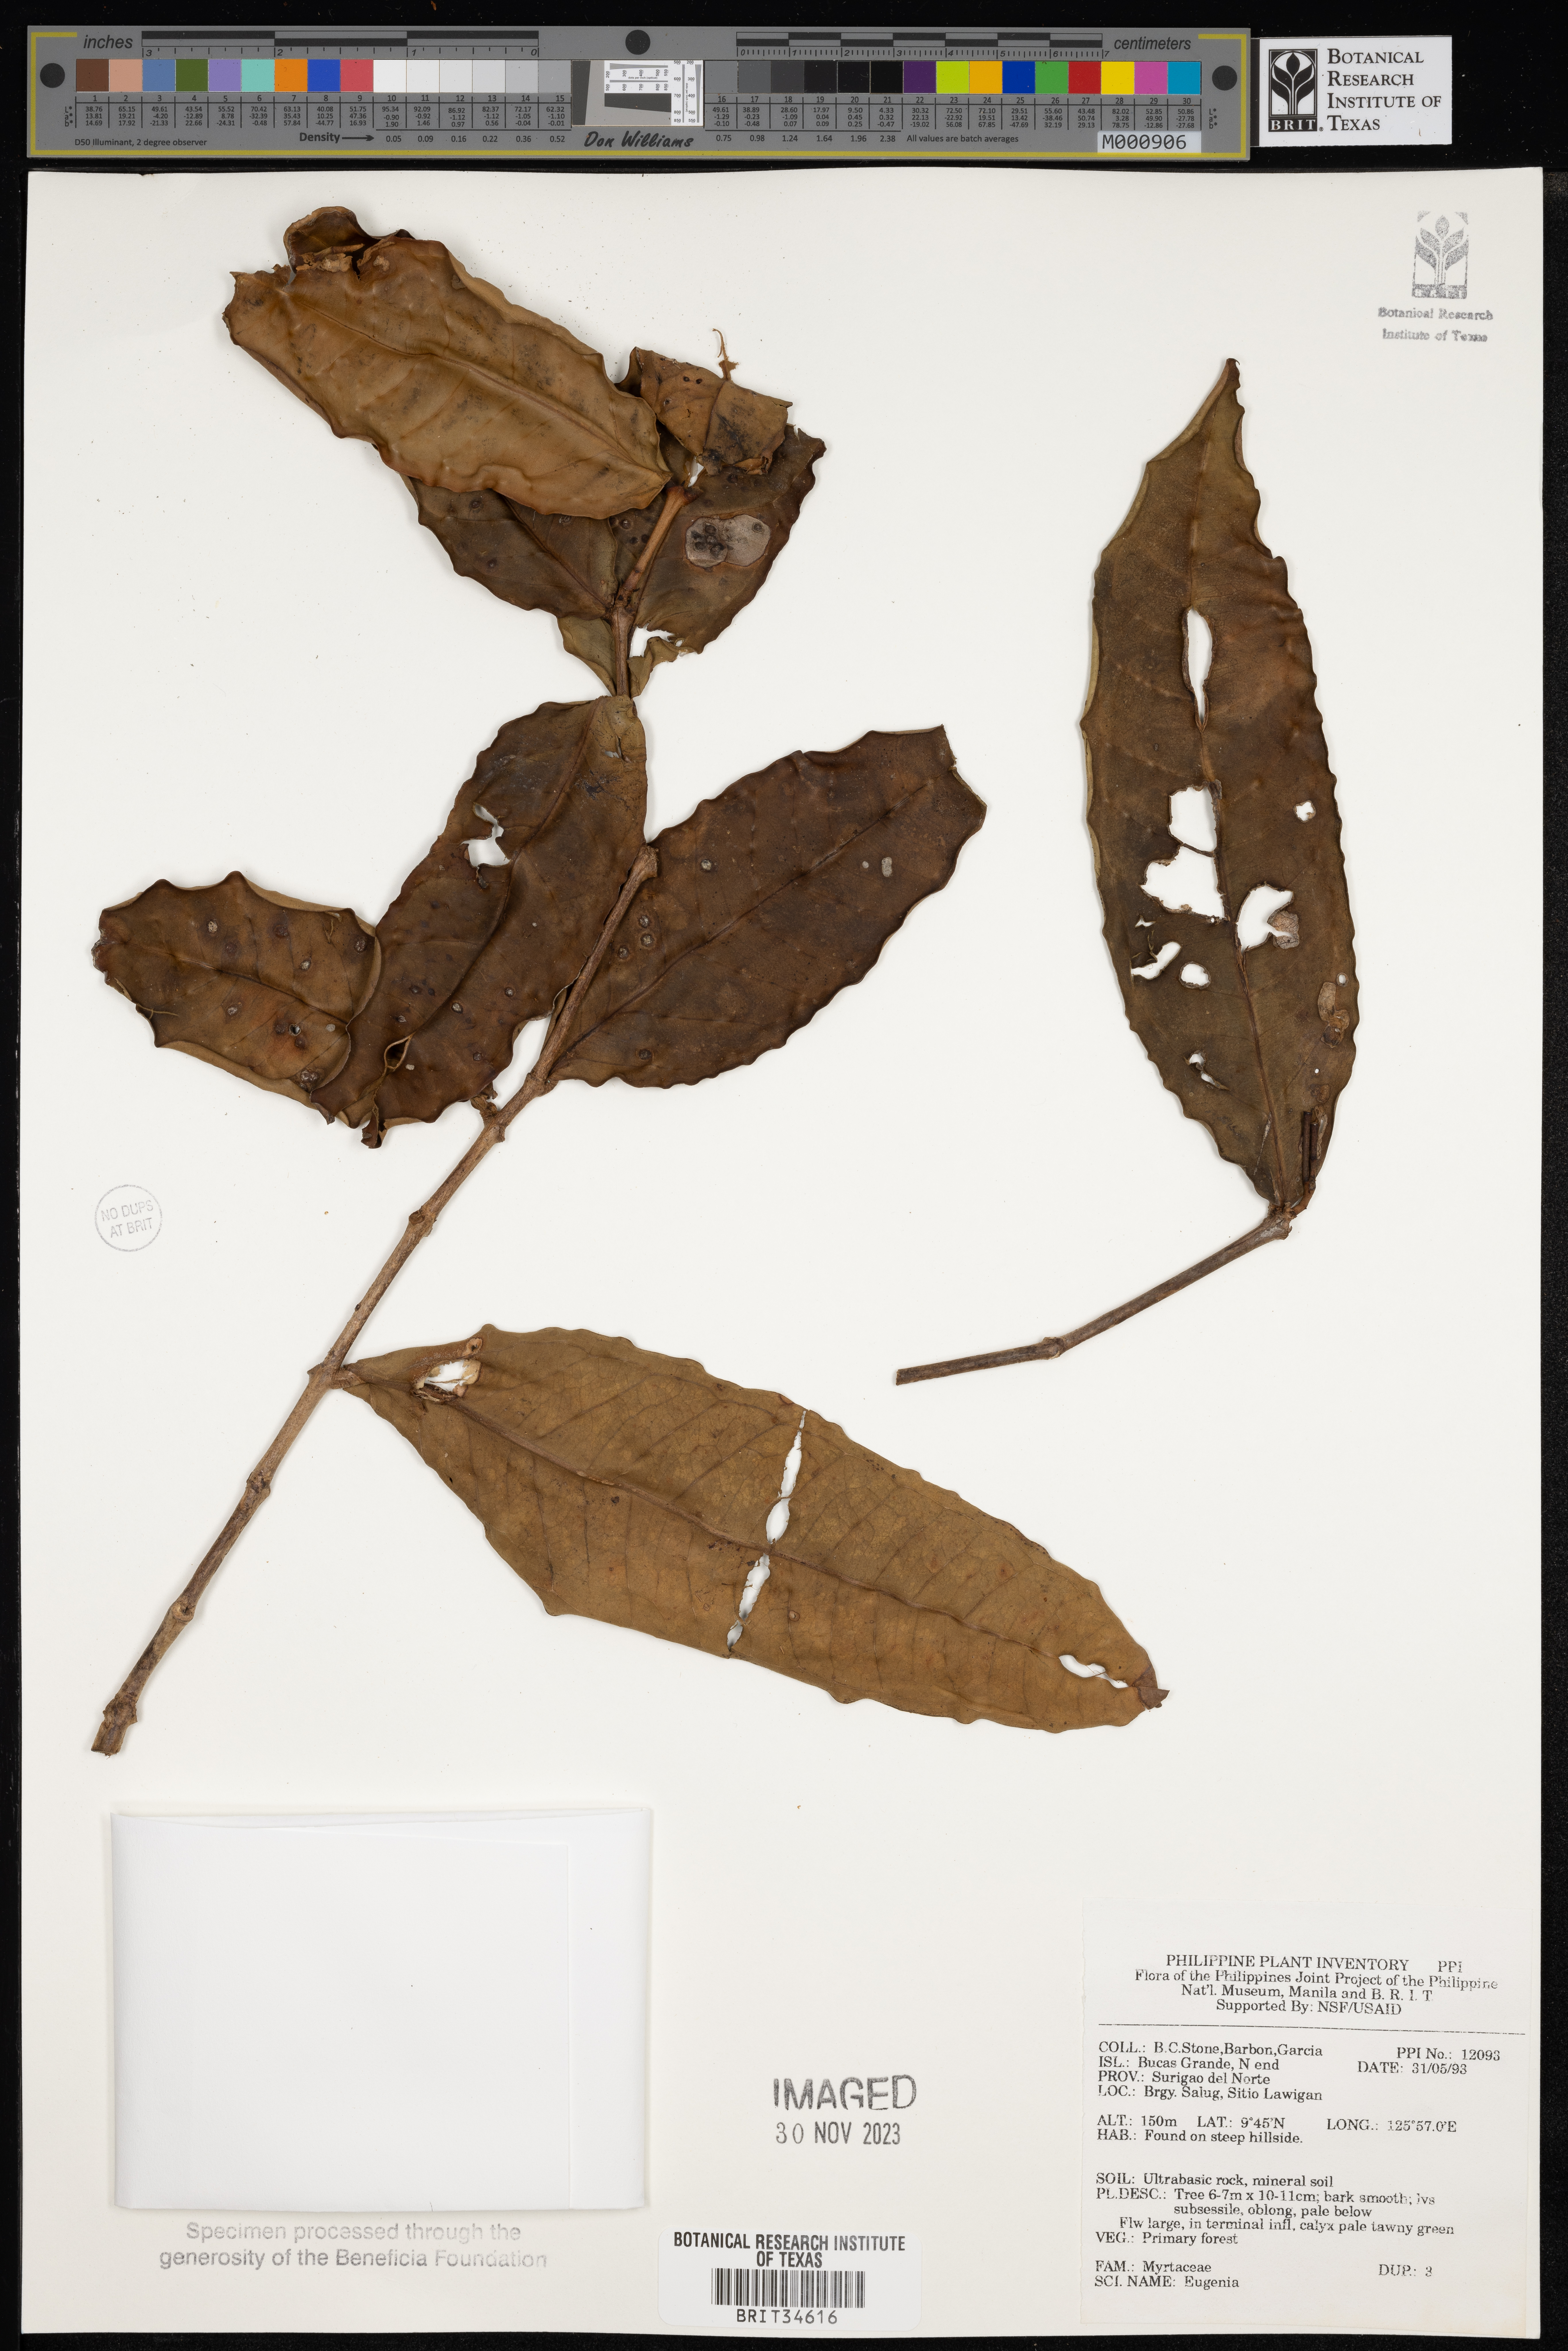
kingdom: Plantae
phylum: Tracheophyta
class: Magnoliopsida
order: Myrtales
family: Myrtaceae
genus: Eugenia
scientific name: Eugenia
